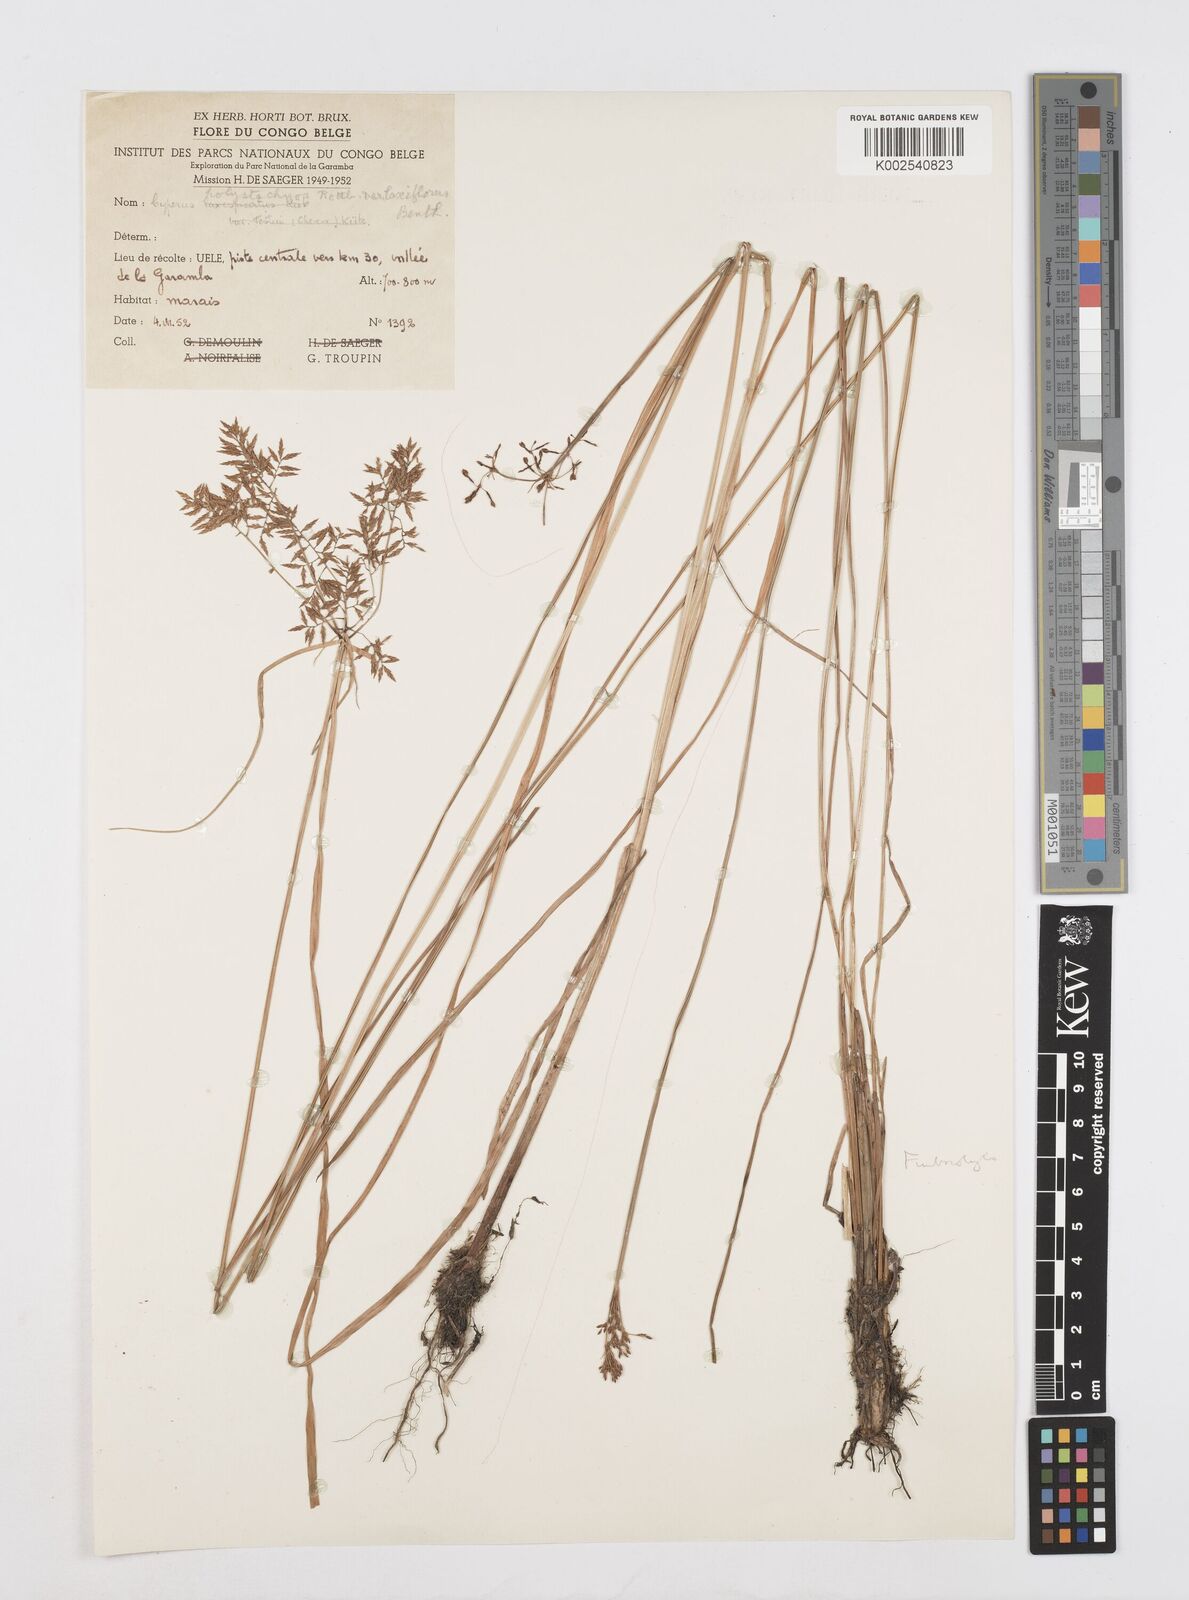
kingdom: Plantae
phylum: Tracheophyta
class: Liliopsida
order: Poales
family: Cyperaceae
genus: Cyperus
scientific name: Cyperus polystachyos
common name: Bunchy flat sedge
